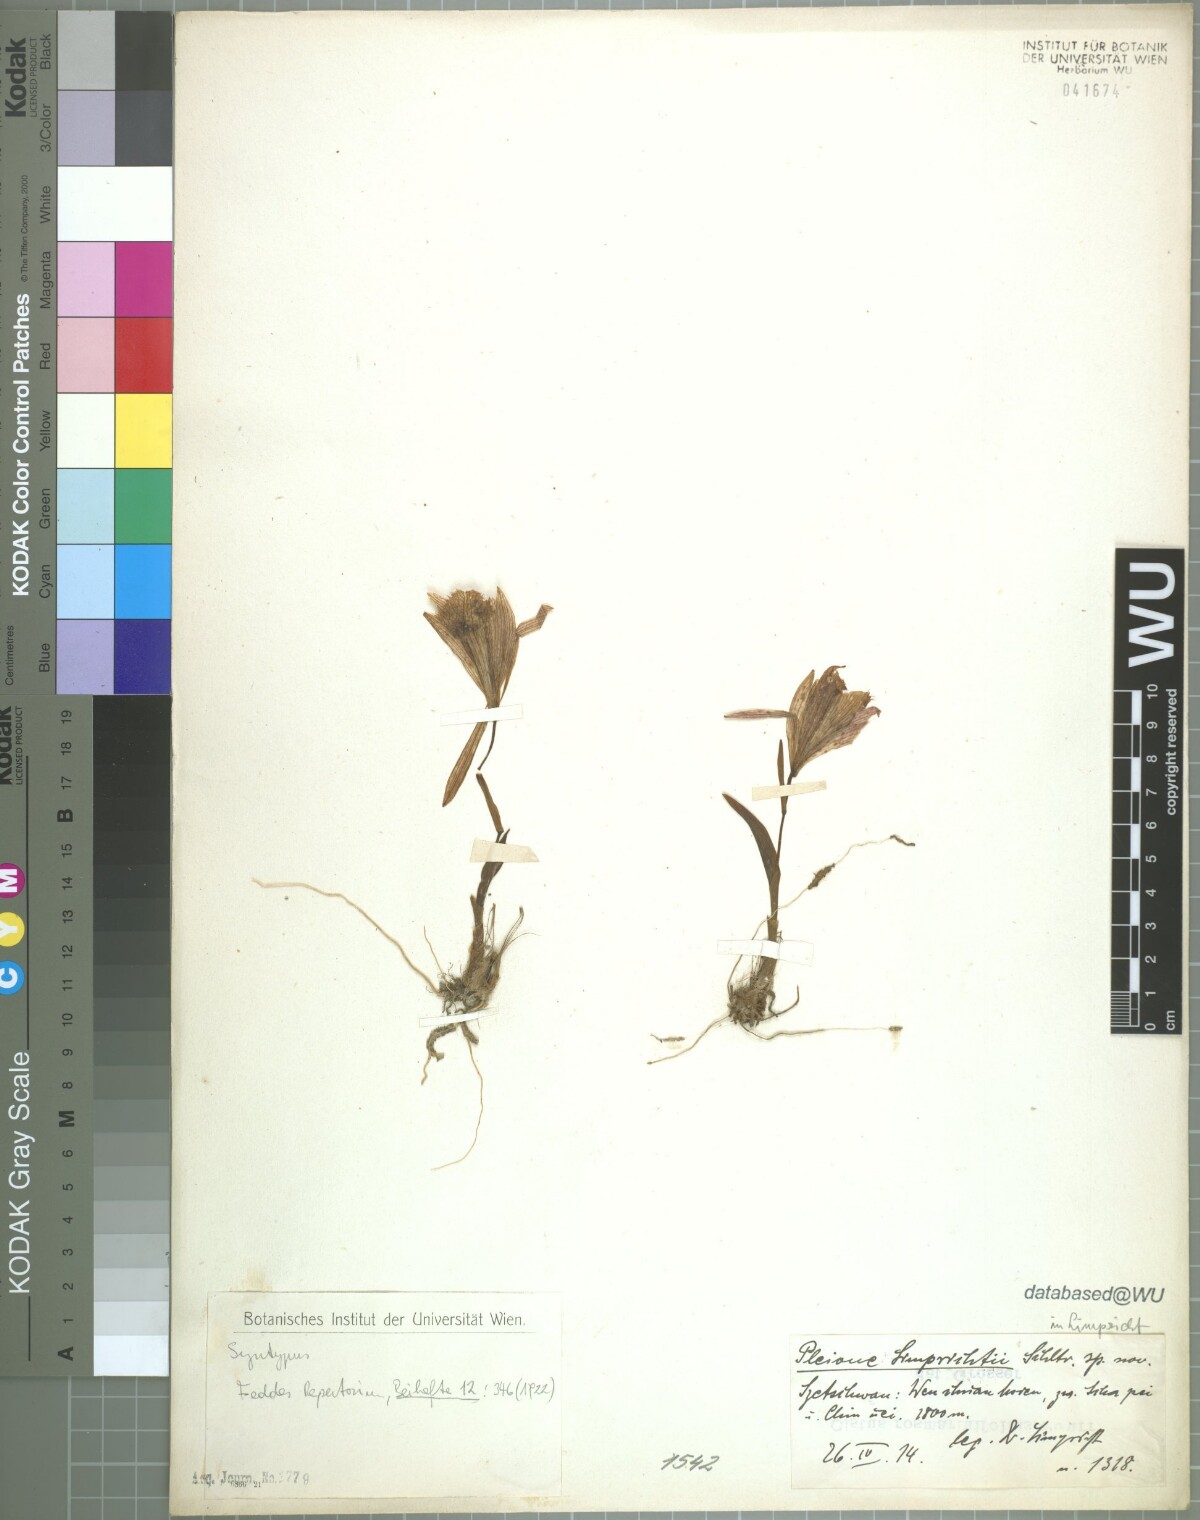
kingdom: Plantae
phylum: Tracheophyta
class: Liliopsida
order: Asparagales
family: Orchidaceae
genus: Pleione
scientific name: Pleione limprichtii
